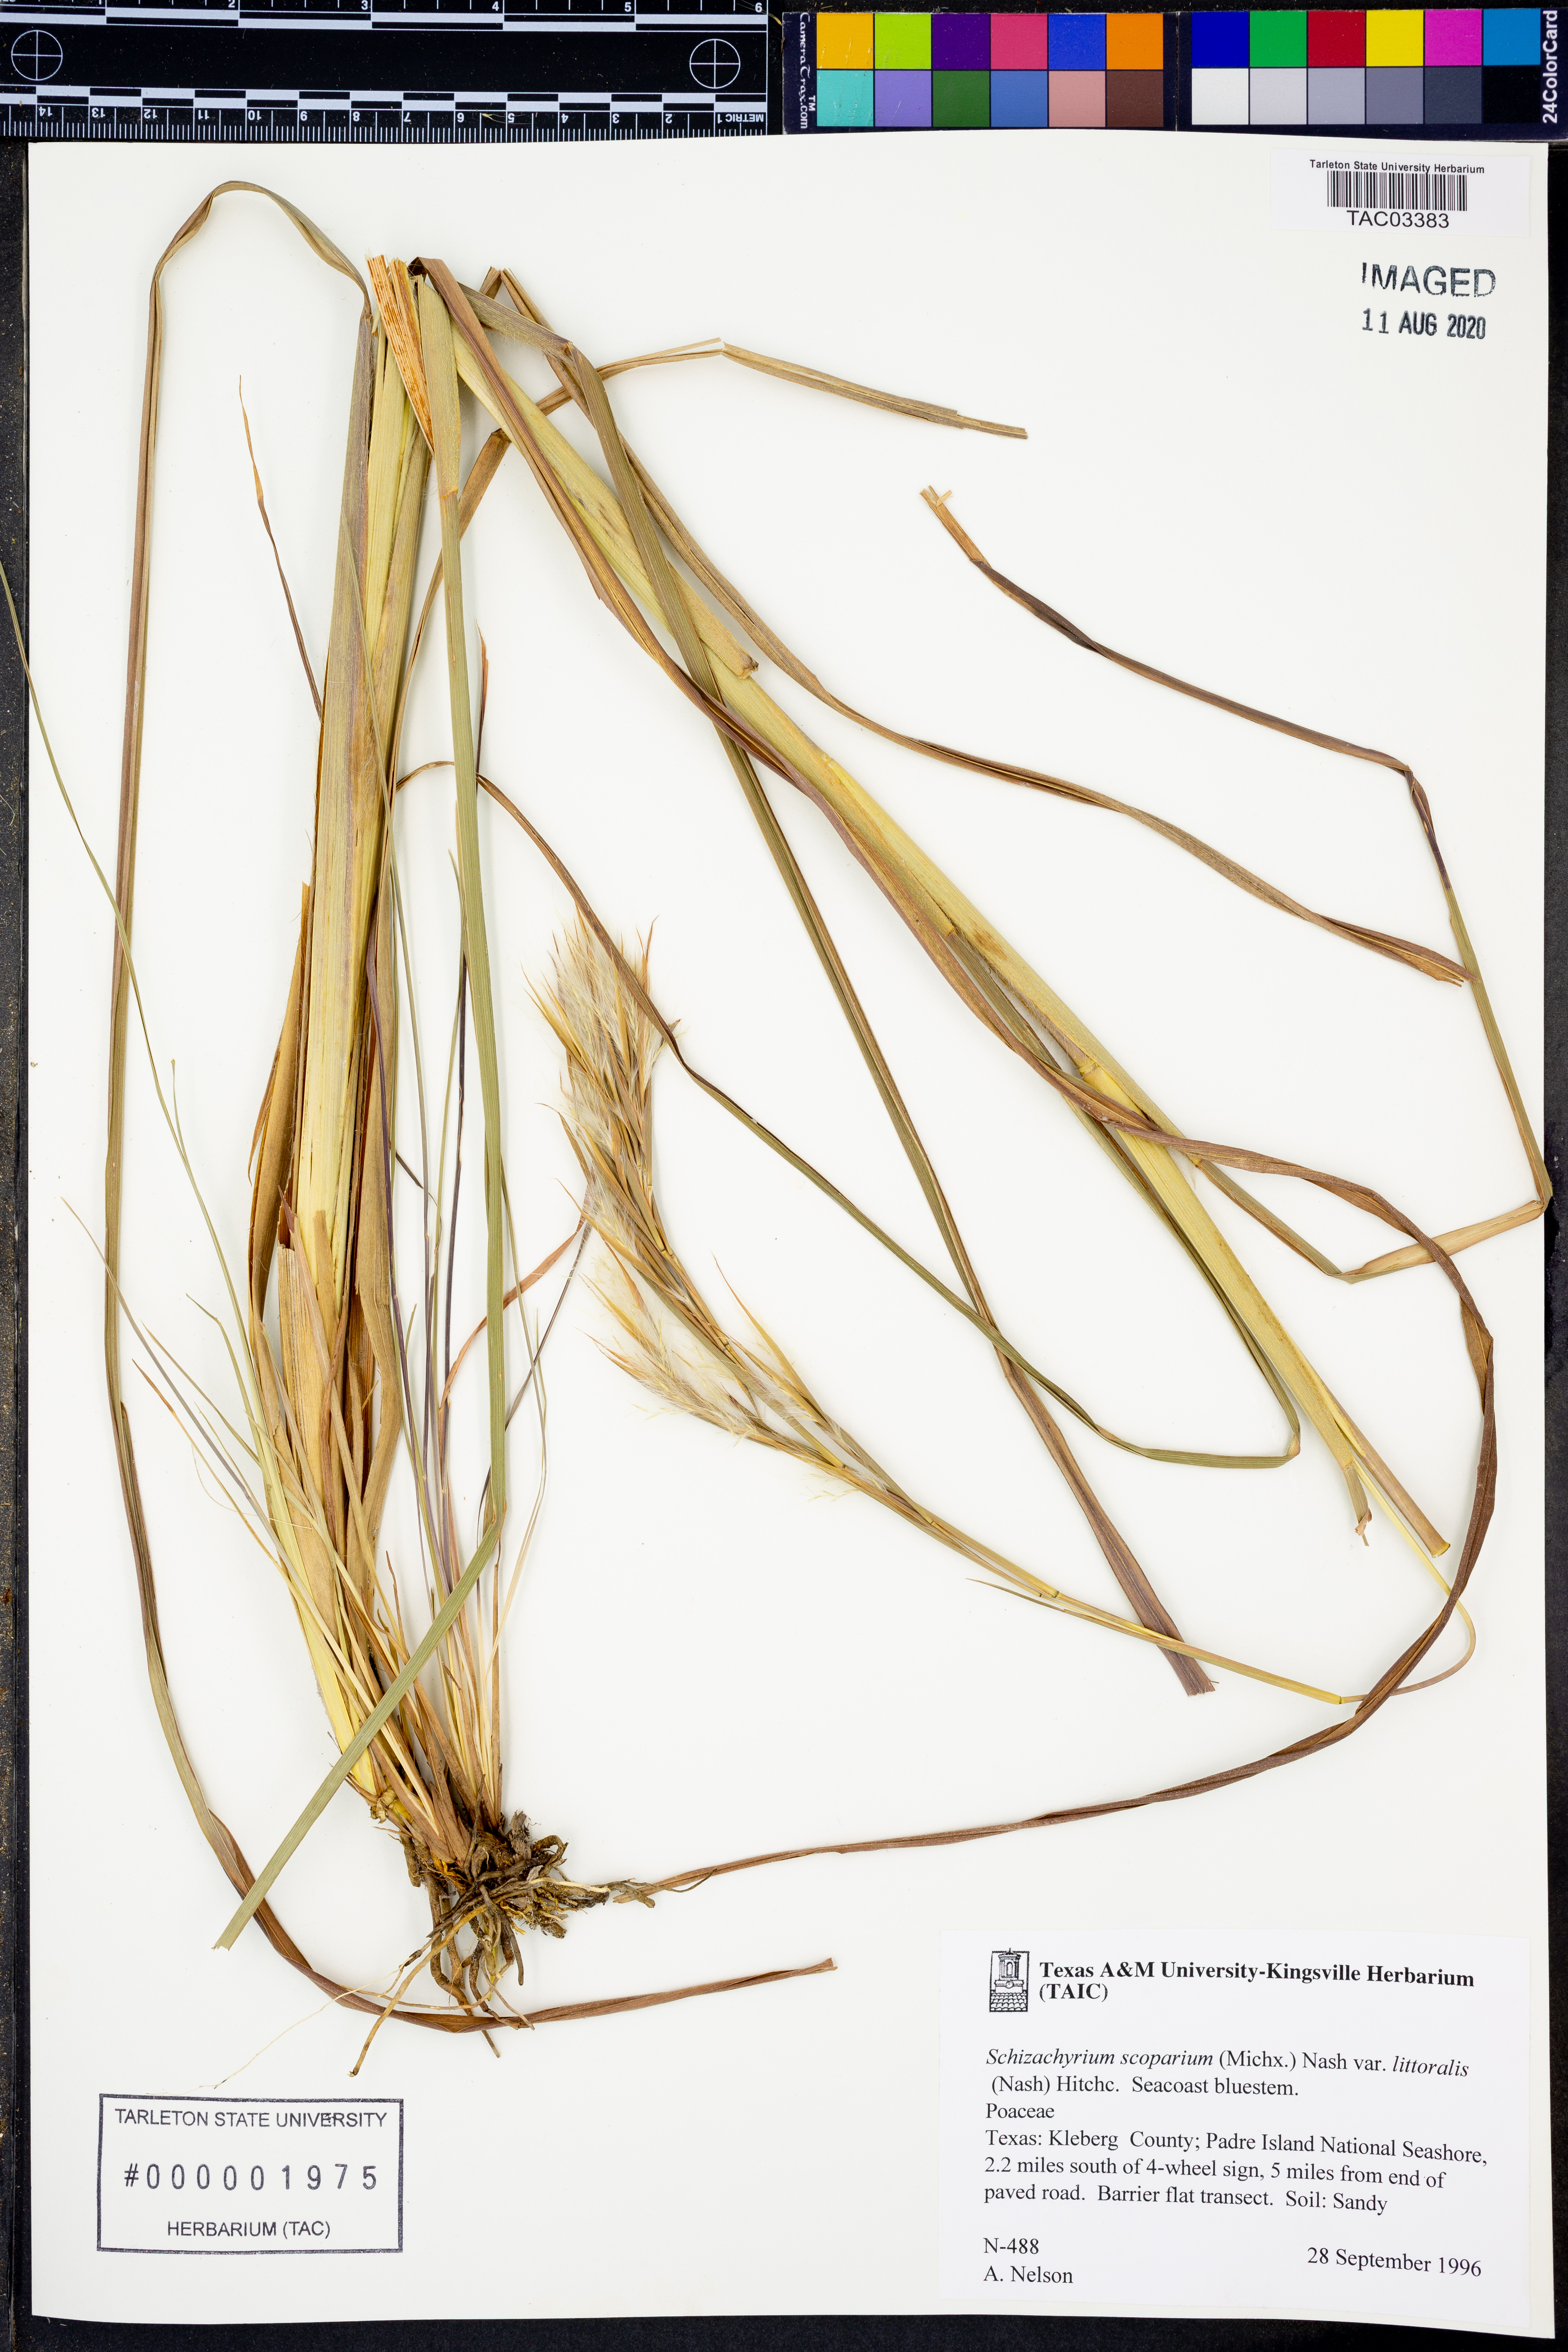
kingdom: Plantae
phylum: Tracheophyta
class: Liliopsida
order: Poales
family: Poaceae
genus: Schizachyrium
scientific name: Schizachyrium scoparium
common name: Little bluestem
